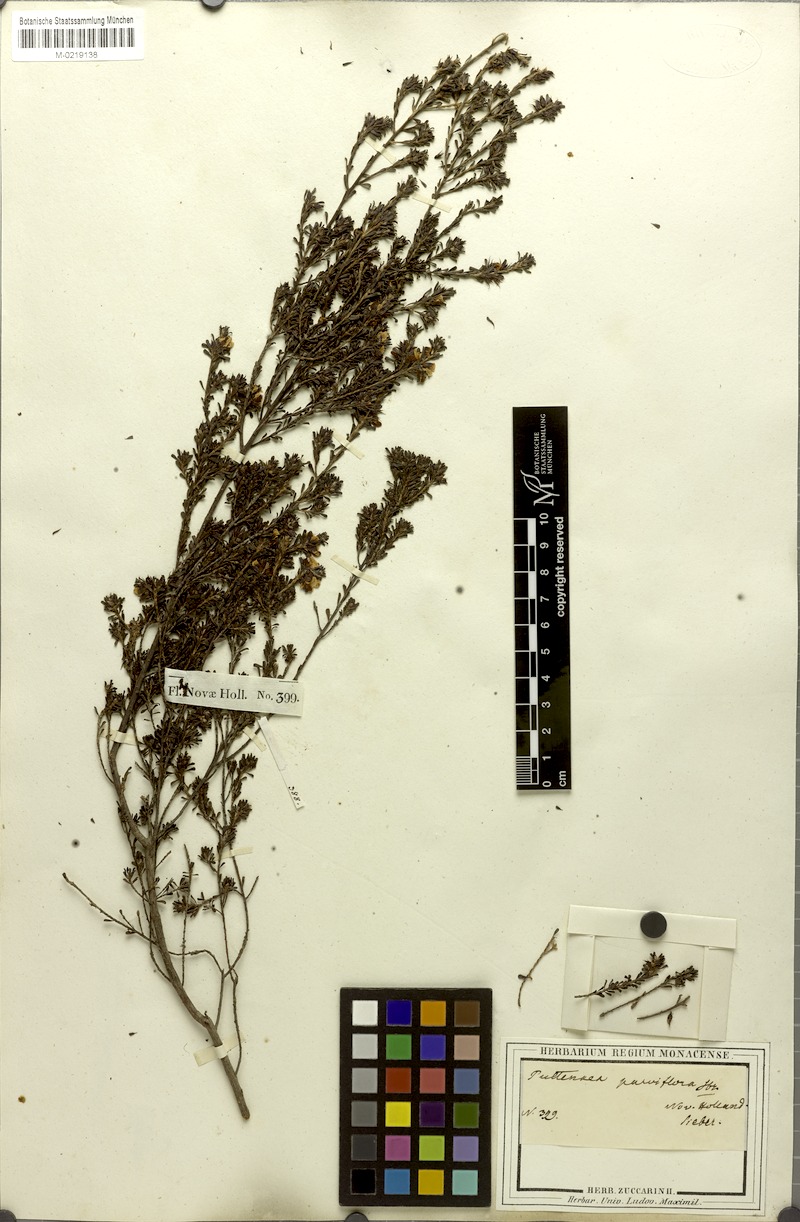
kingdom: Plantae
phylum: Tracheophyta
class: Magnoliopsida
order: Fabales
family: Fabaceae
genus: Pultenaea
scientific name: Pultenaea parviflora
